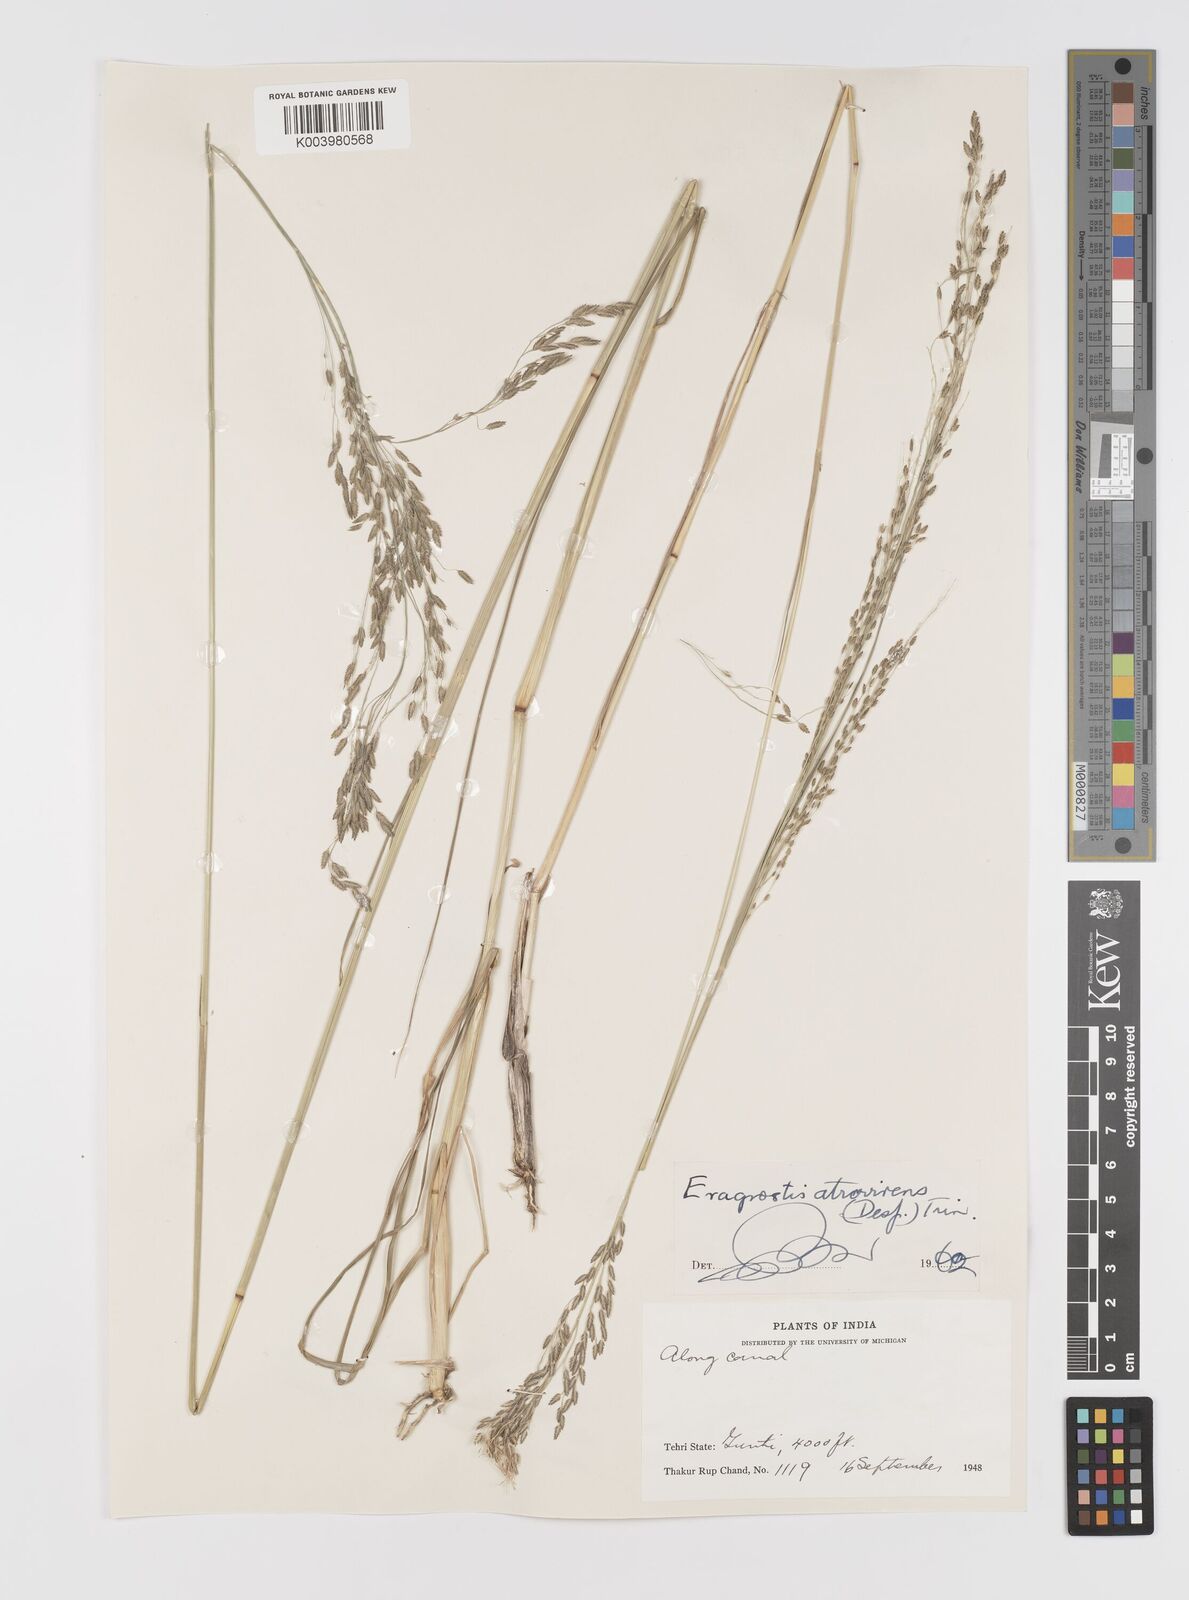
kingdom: Plantae
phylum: Tracheophyta
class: Liliopsida
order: Poales
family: Poaceae
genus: Eragrostis
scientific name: Eragrostis atrovirens
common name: Thalia lovegrass
